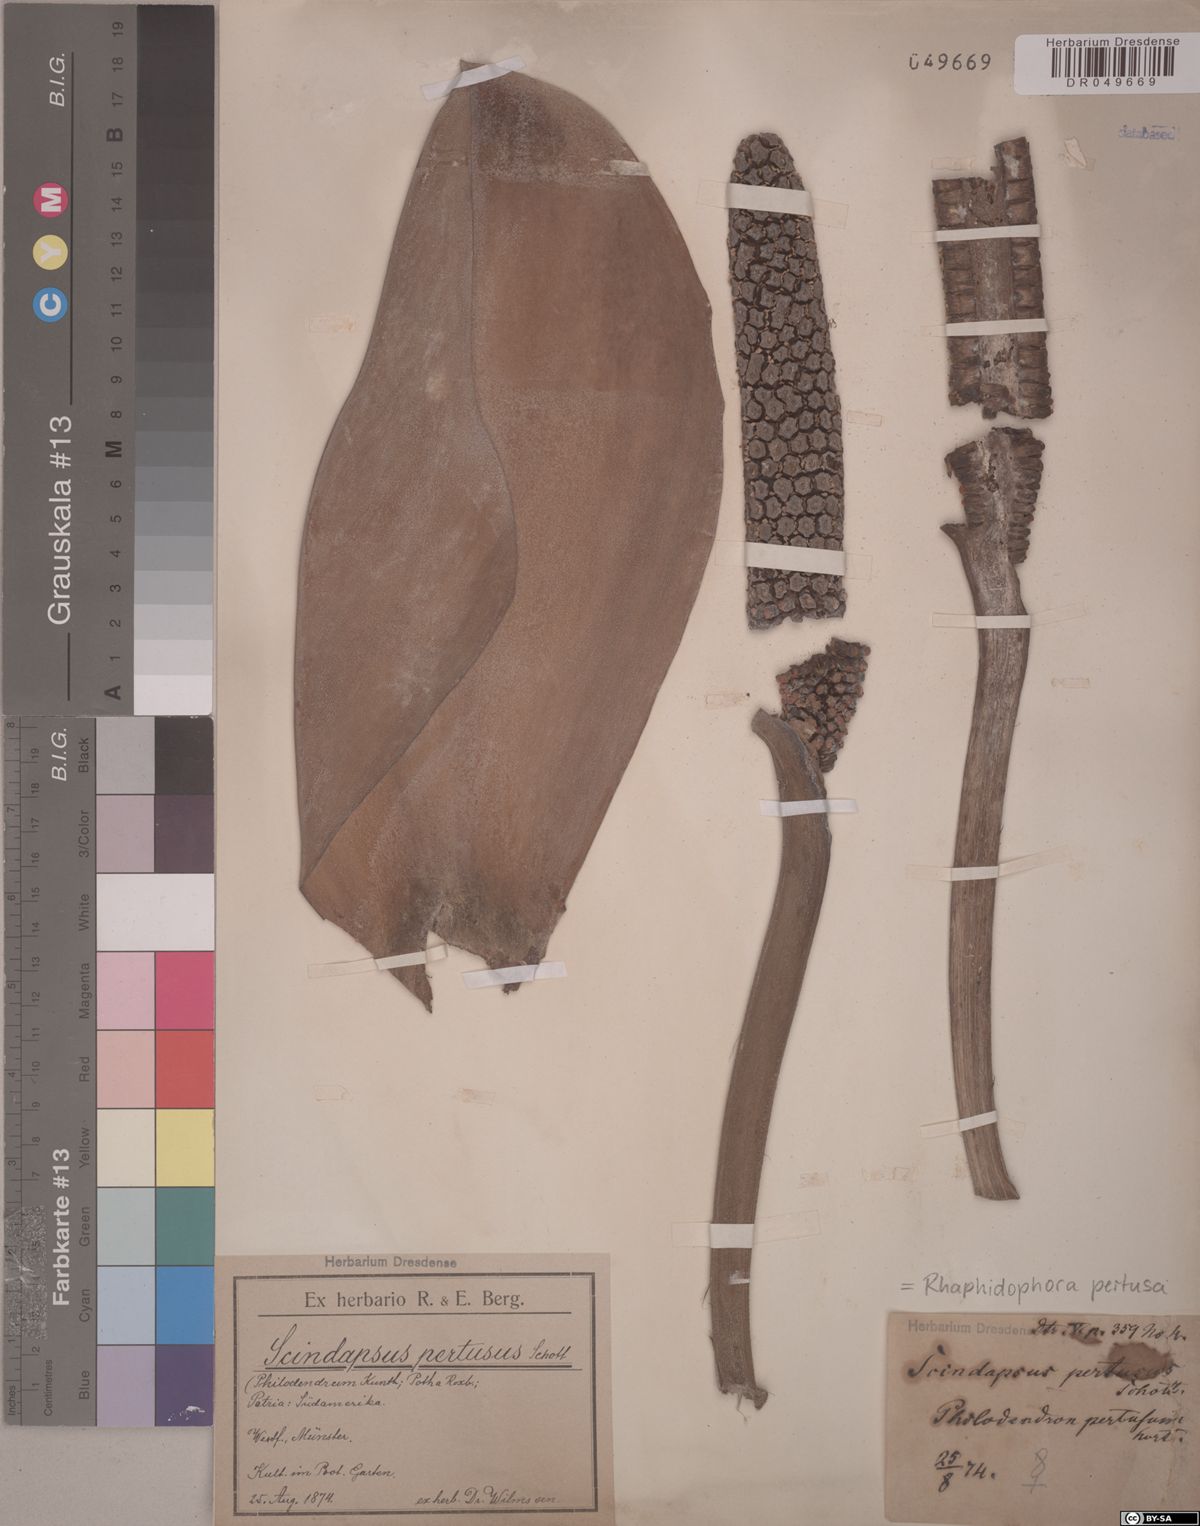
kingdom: Plantae
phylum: Tracheophyta
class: Liliopsida
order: Alismatales
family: Araceae
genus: Rhaphidophora
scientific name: Rhaphidophora pertusa
